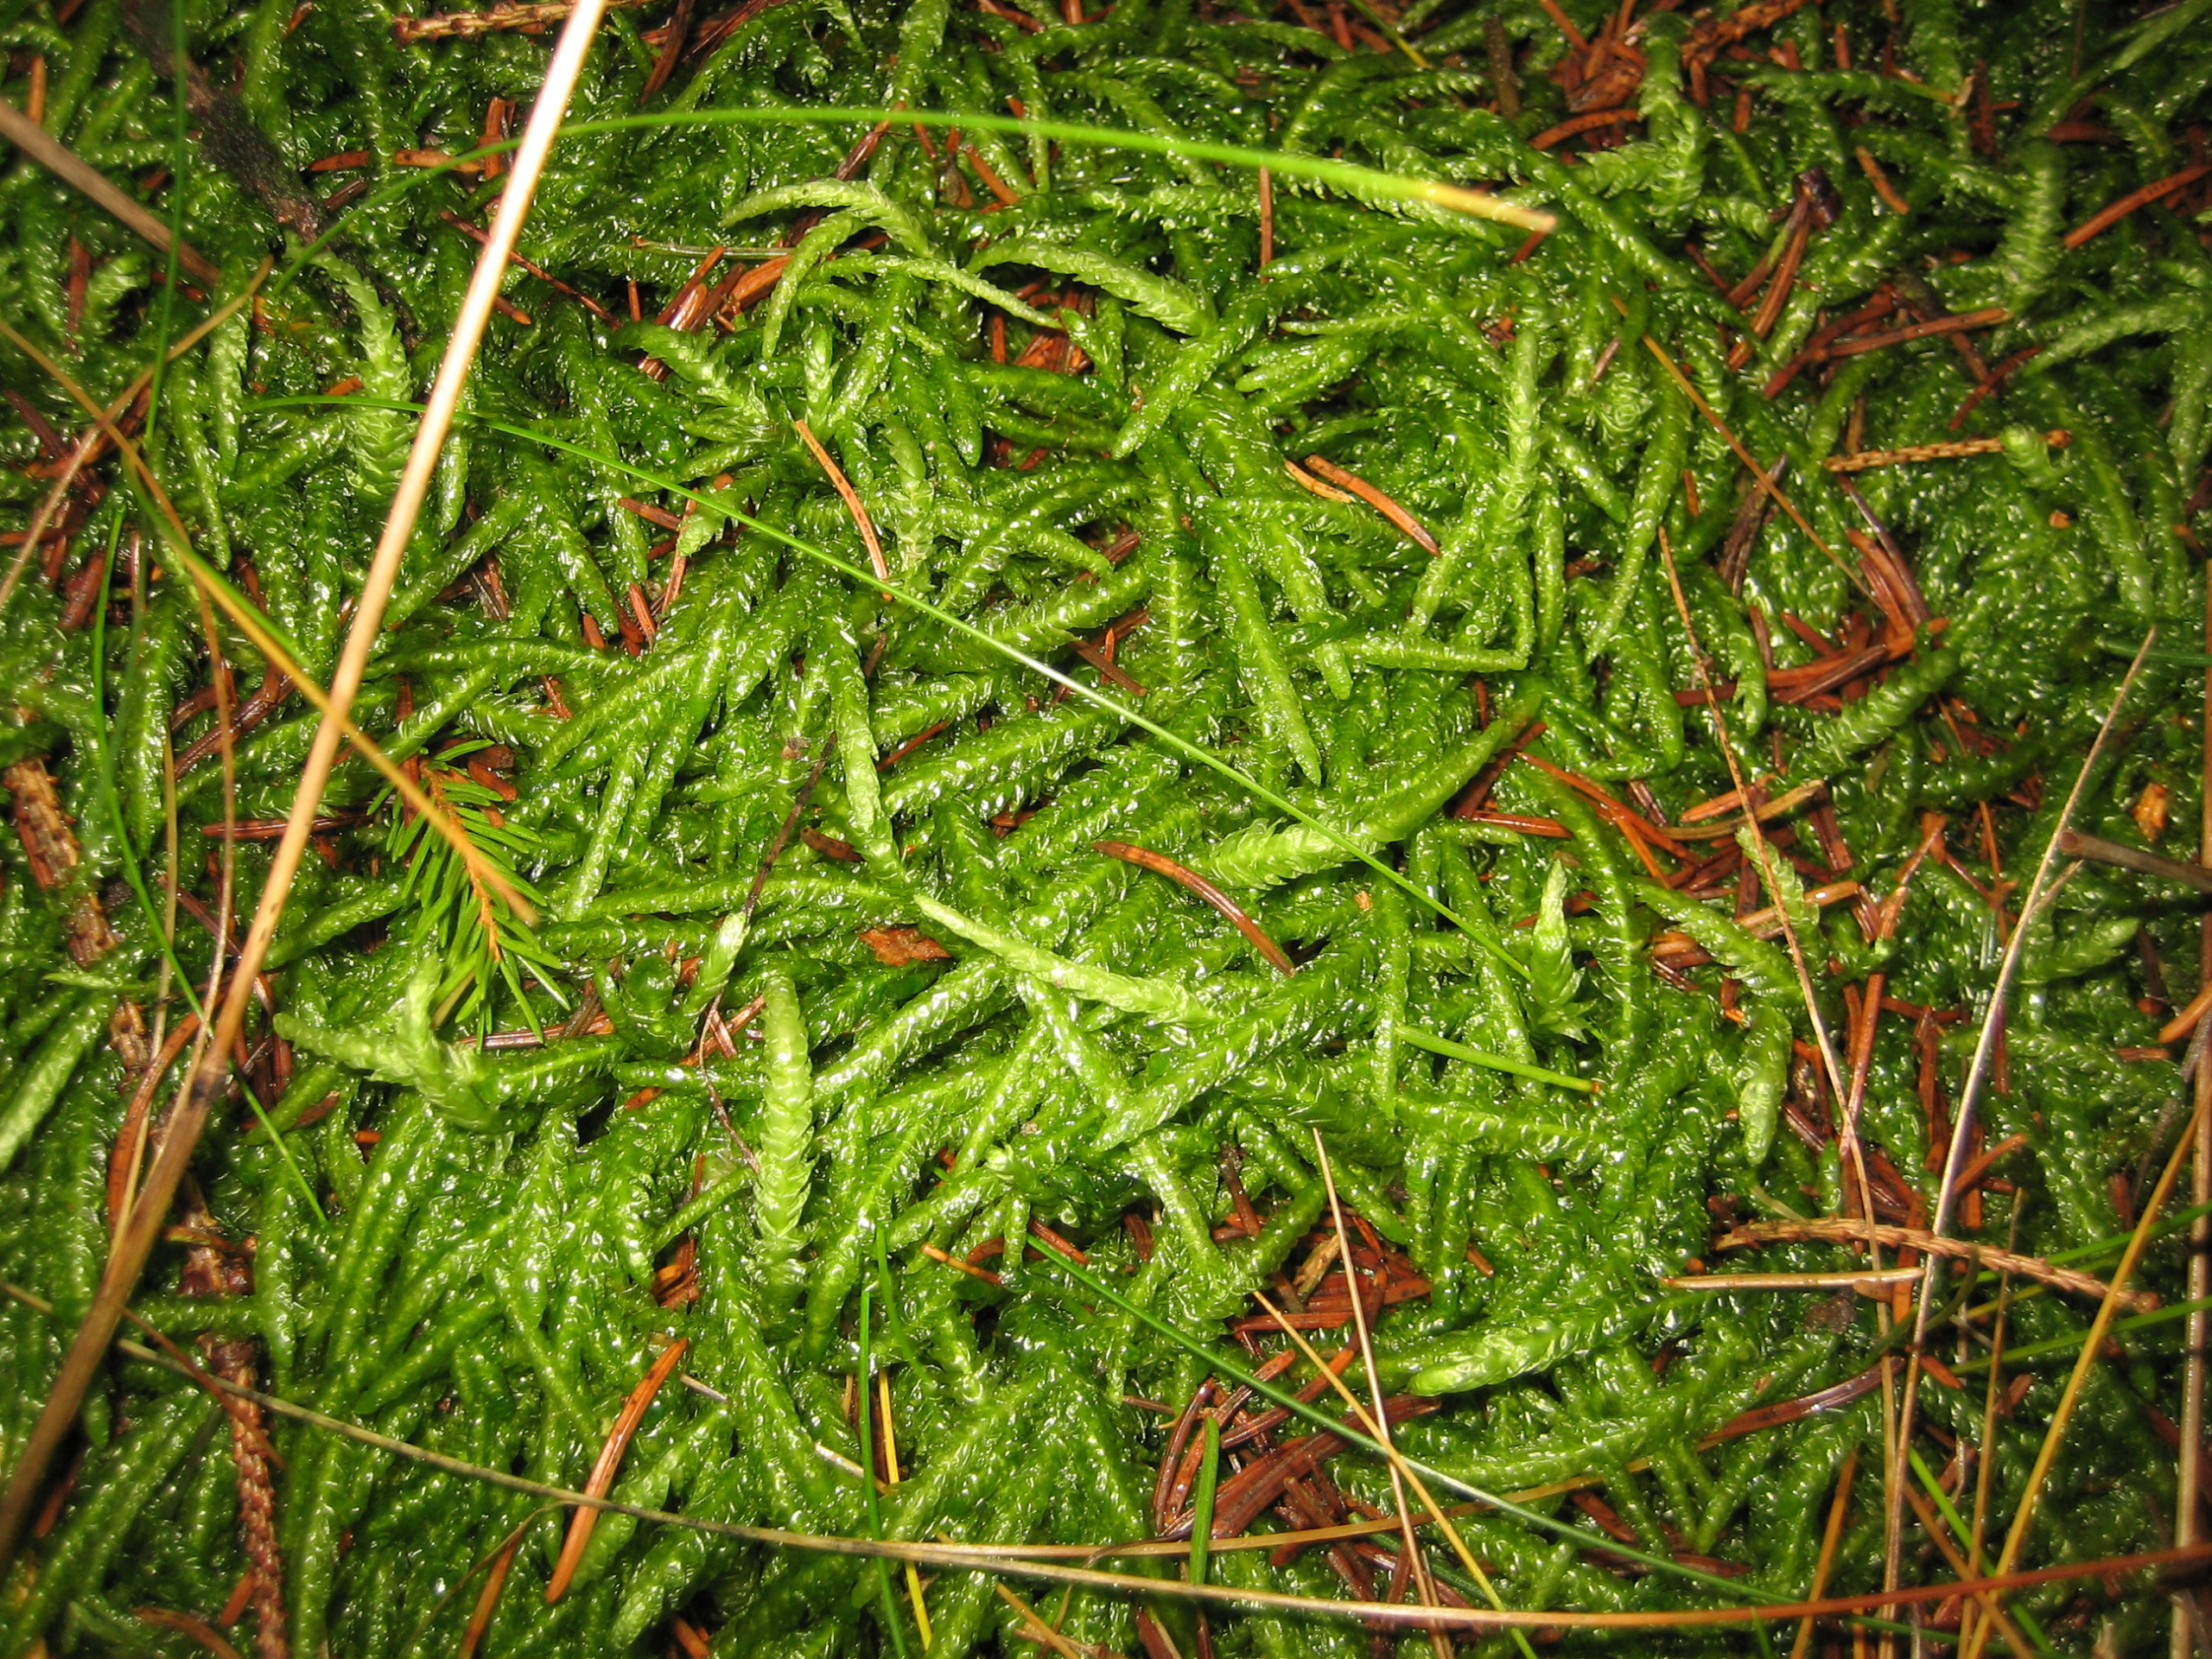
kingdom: Plantae
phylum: Bryophyta
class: Bryopsida
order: Hypnales
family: Plagiotheciaceae
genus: Plagiothecium
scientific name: Plagiothecium undulatum
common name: Bølget tæppemos
